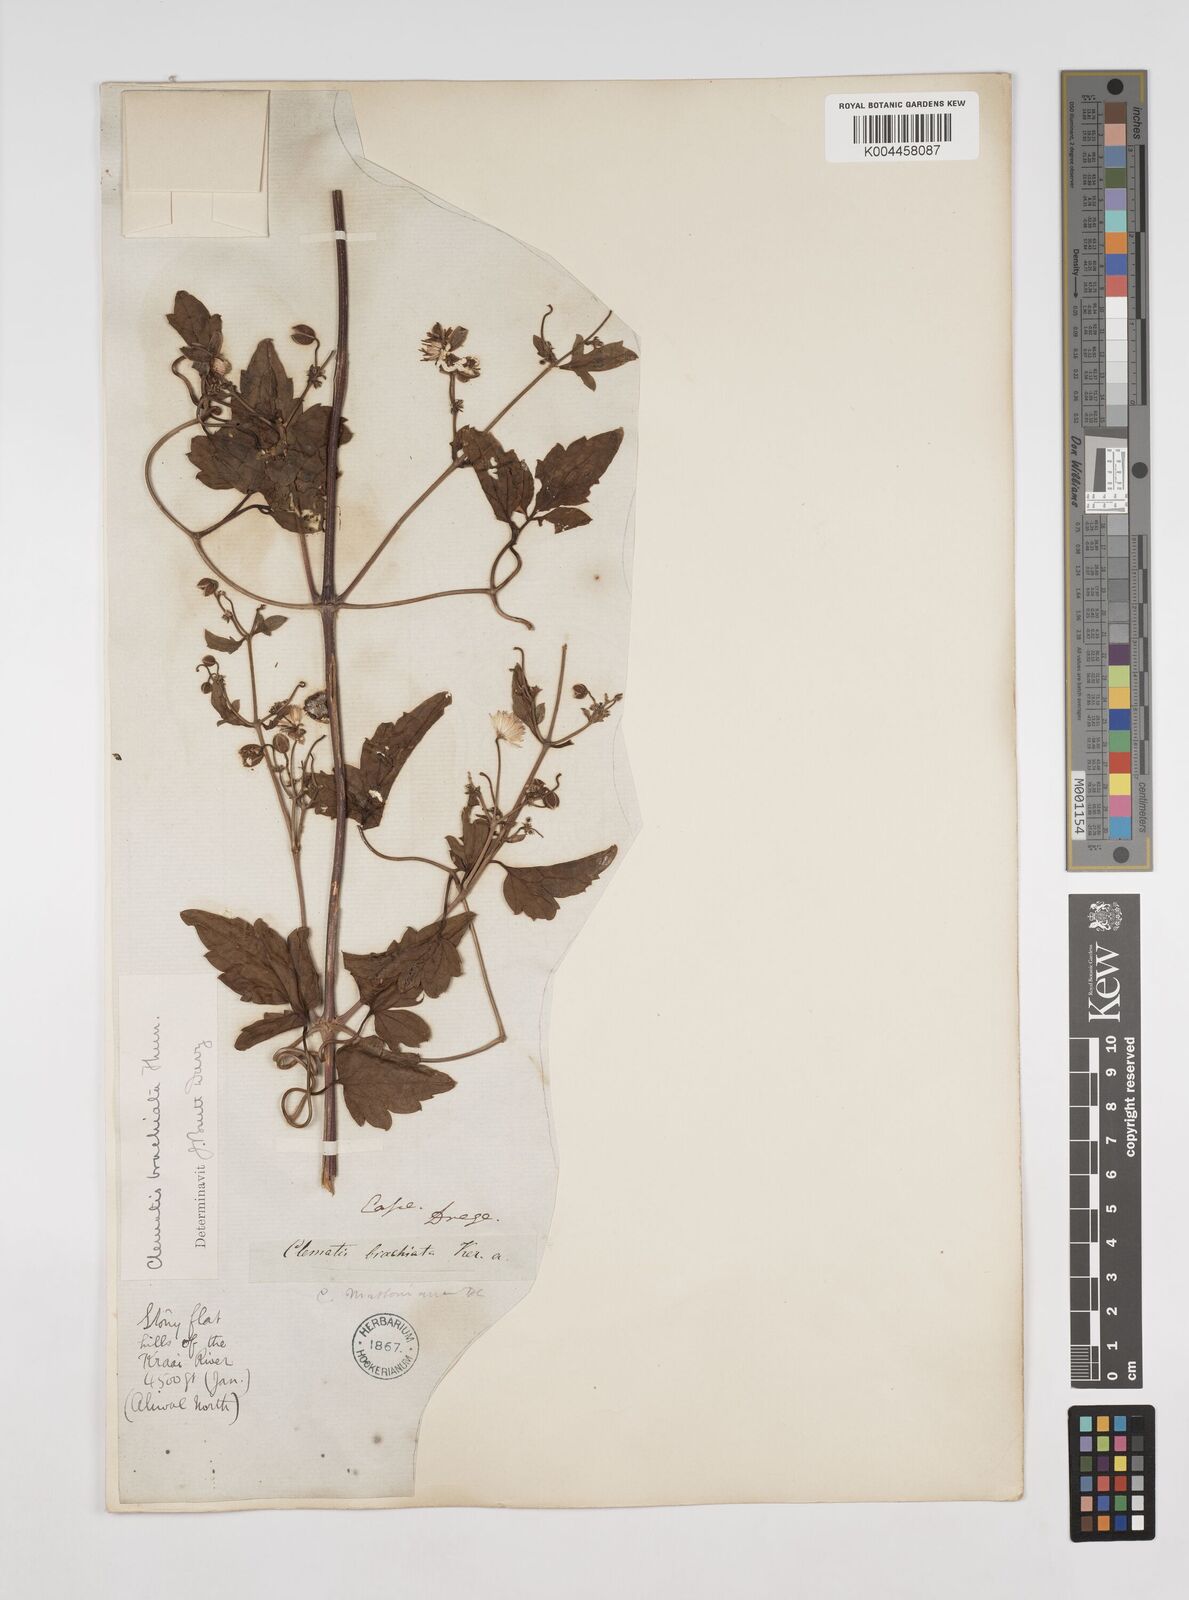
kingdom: Plantae
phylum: Tracheophyta
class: Magnoliopsida
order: Ranunculales
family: Ranunculaceae
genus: Clematis
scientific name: Clematis brachiata
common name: Traveler's-joy
